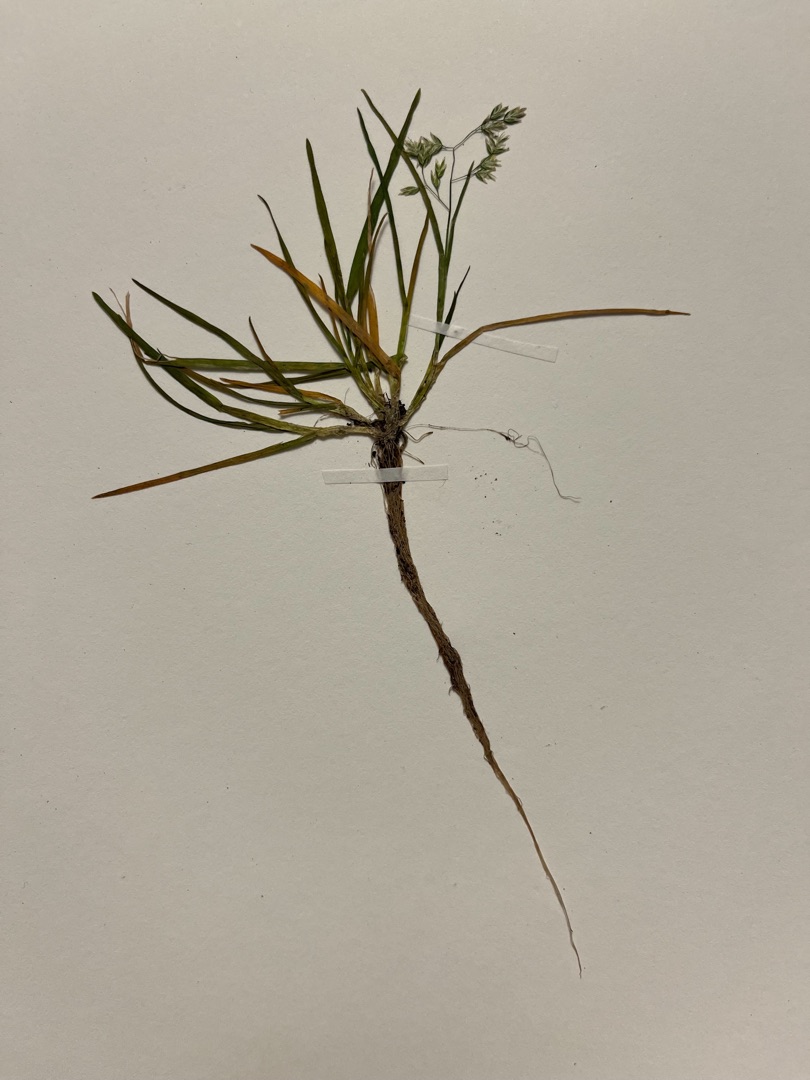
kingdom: Plantae
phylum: Tracheophyta
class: Liliopsida
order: Poales
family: Poaceae
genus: Poa
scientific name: Poa annua
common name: Enårig rapgræs
